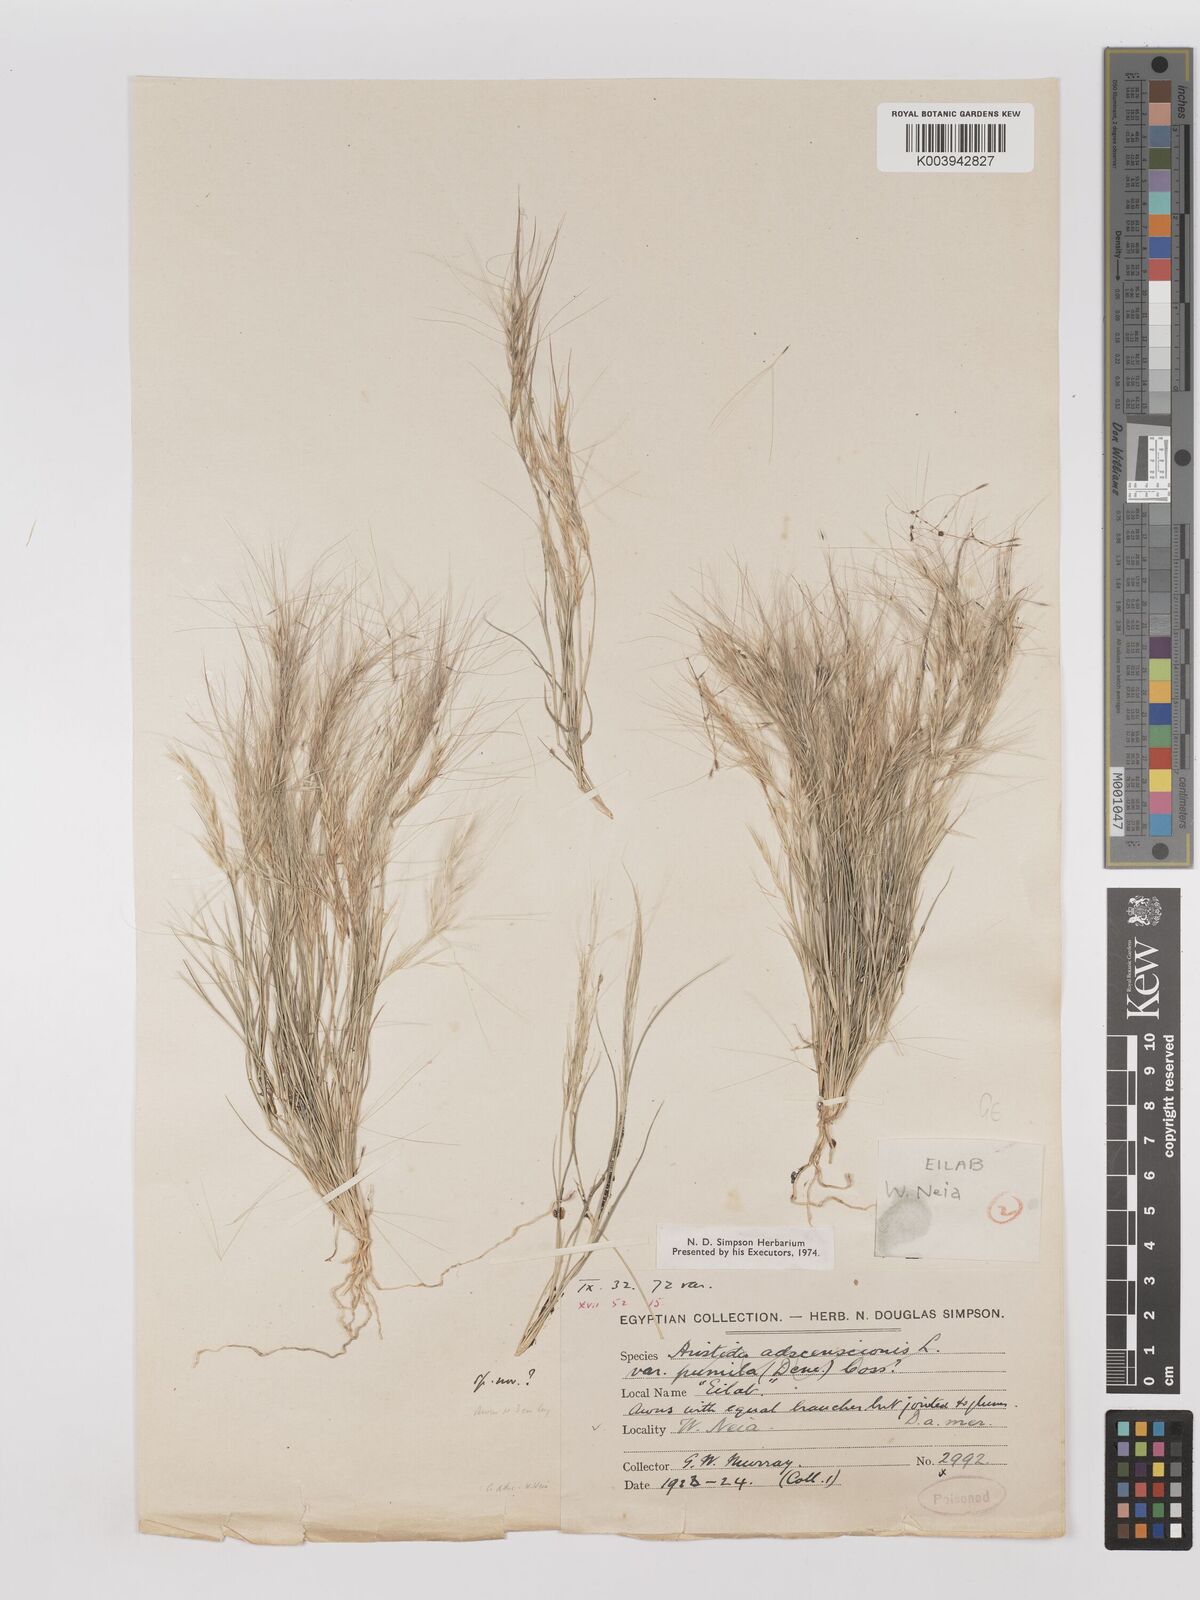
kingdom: Plantae
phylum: Tracheophyta
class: Liliopsida
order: Poales
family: Poaceae
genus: Aristida
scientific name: Aristida mutabilis
